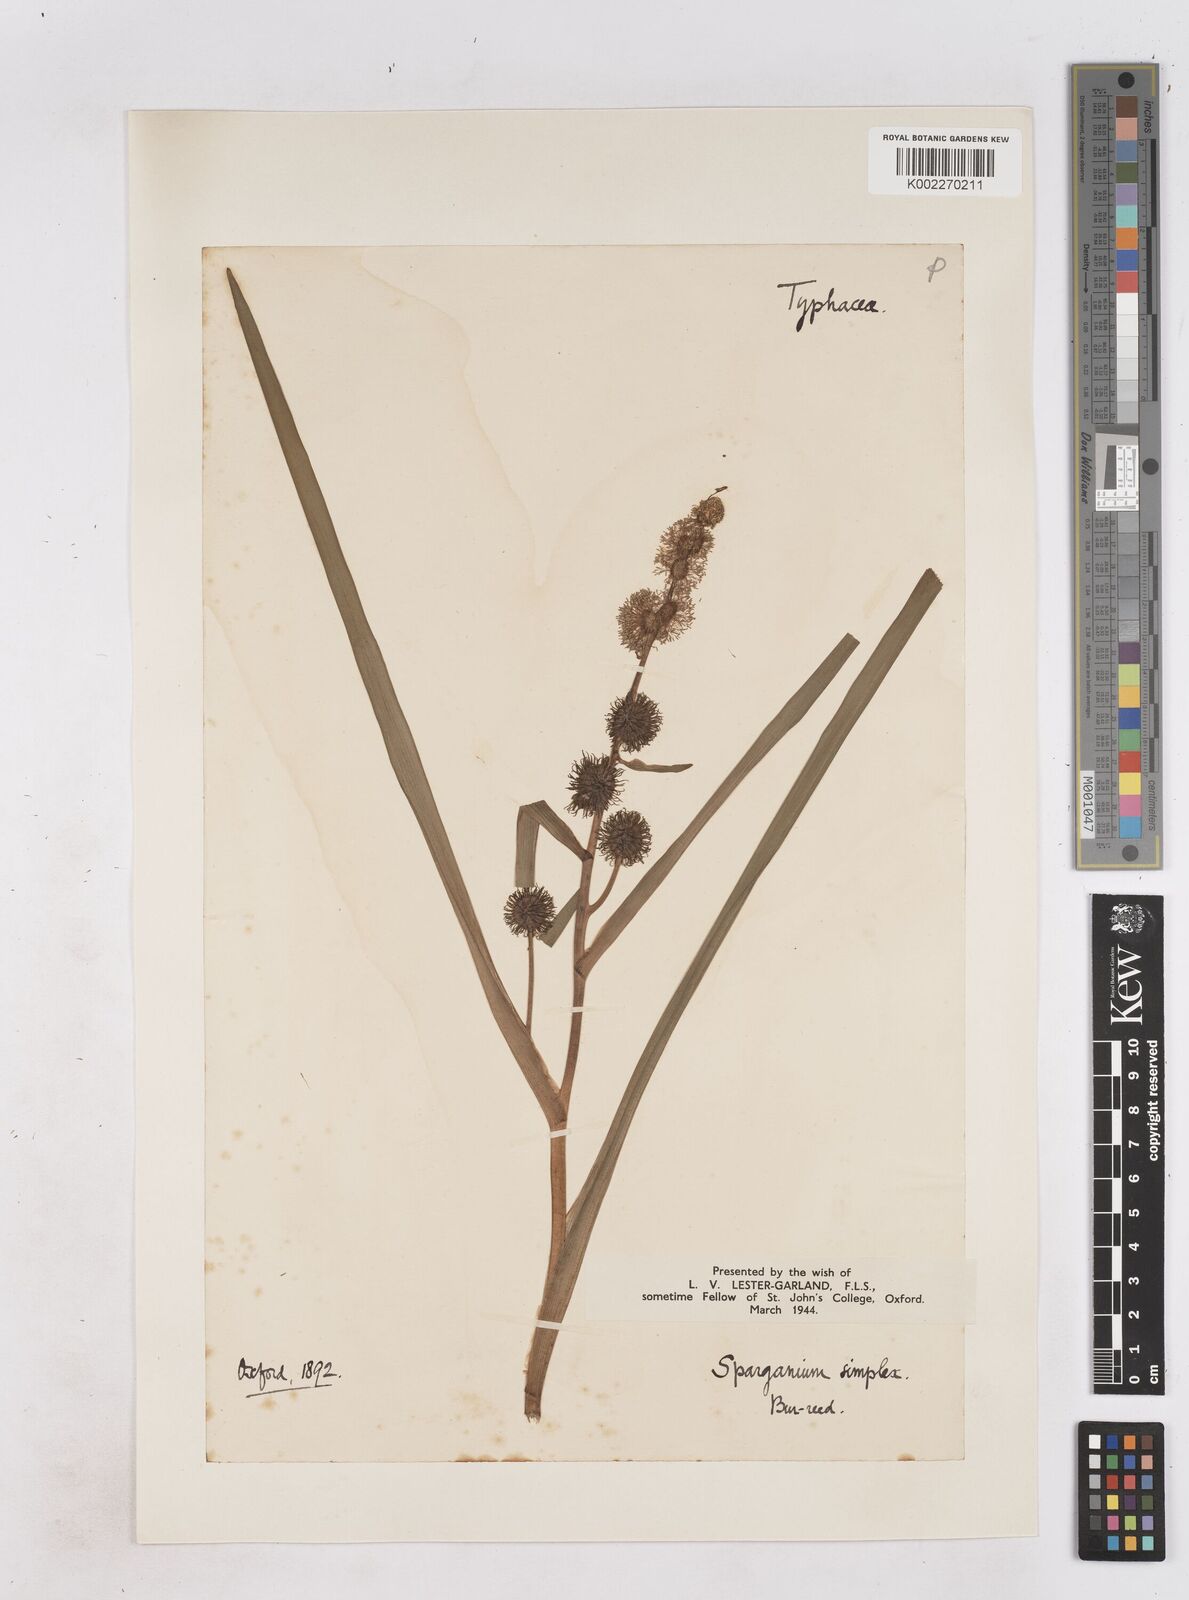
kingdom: Plantae
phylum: Tracheophyta
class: Liliopsida
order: Poales
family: Typhaceae
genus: Sparganium
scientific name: Sparganium emersum
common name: Unbranched bur-reed
